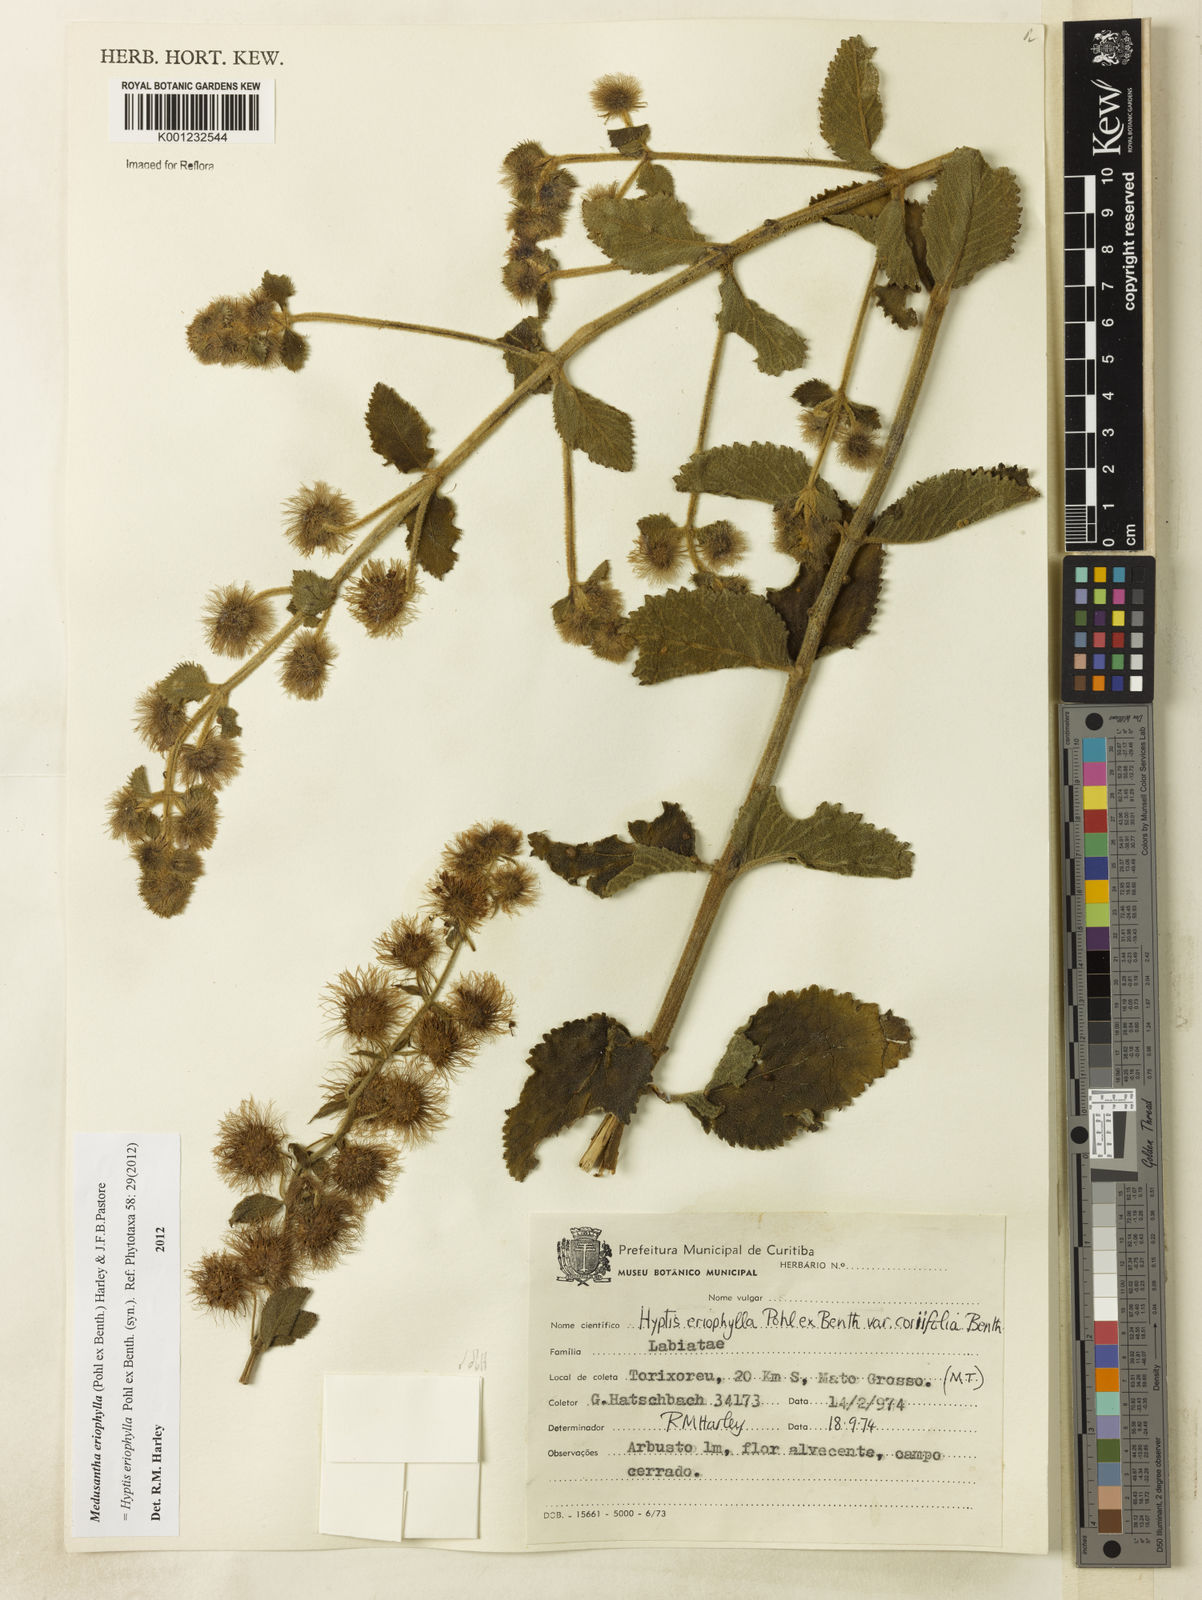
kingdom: Plantae
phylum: Tracheophyta
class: Magnoliopsida
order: Lamiales
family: Lamiaceae
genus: Medusantha
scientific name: Medusantha eriophylla
